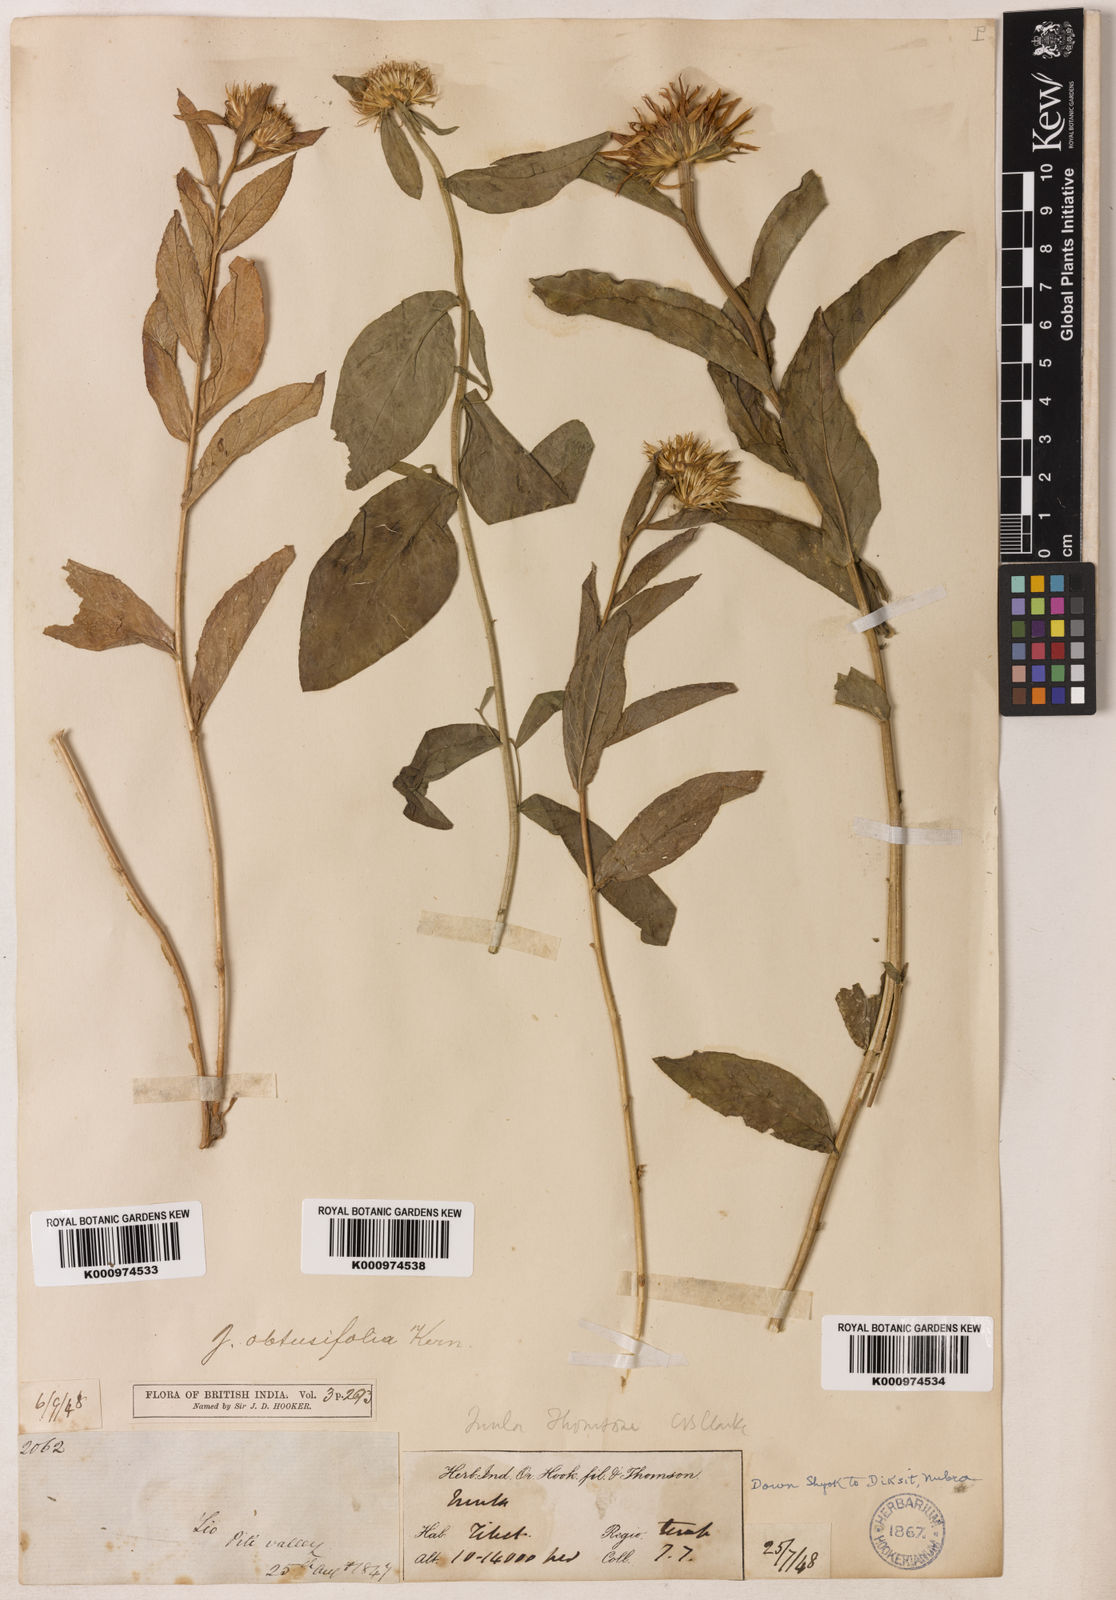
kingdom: Plantae
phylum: Tracheophyta
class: Magnoliopsida
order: Asterales
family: Asteraceae
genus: Inula
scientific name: Inula obtusifolia
